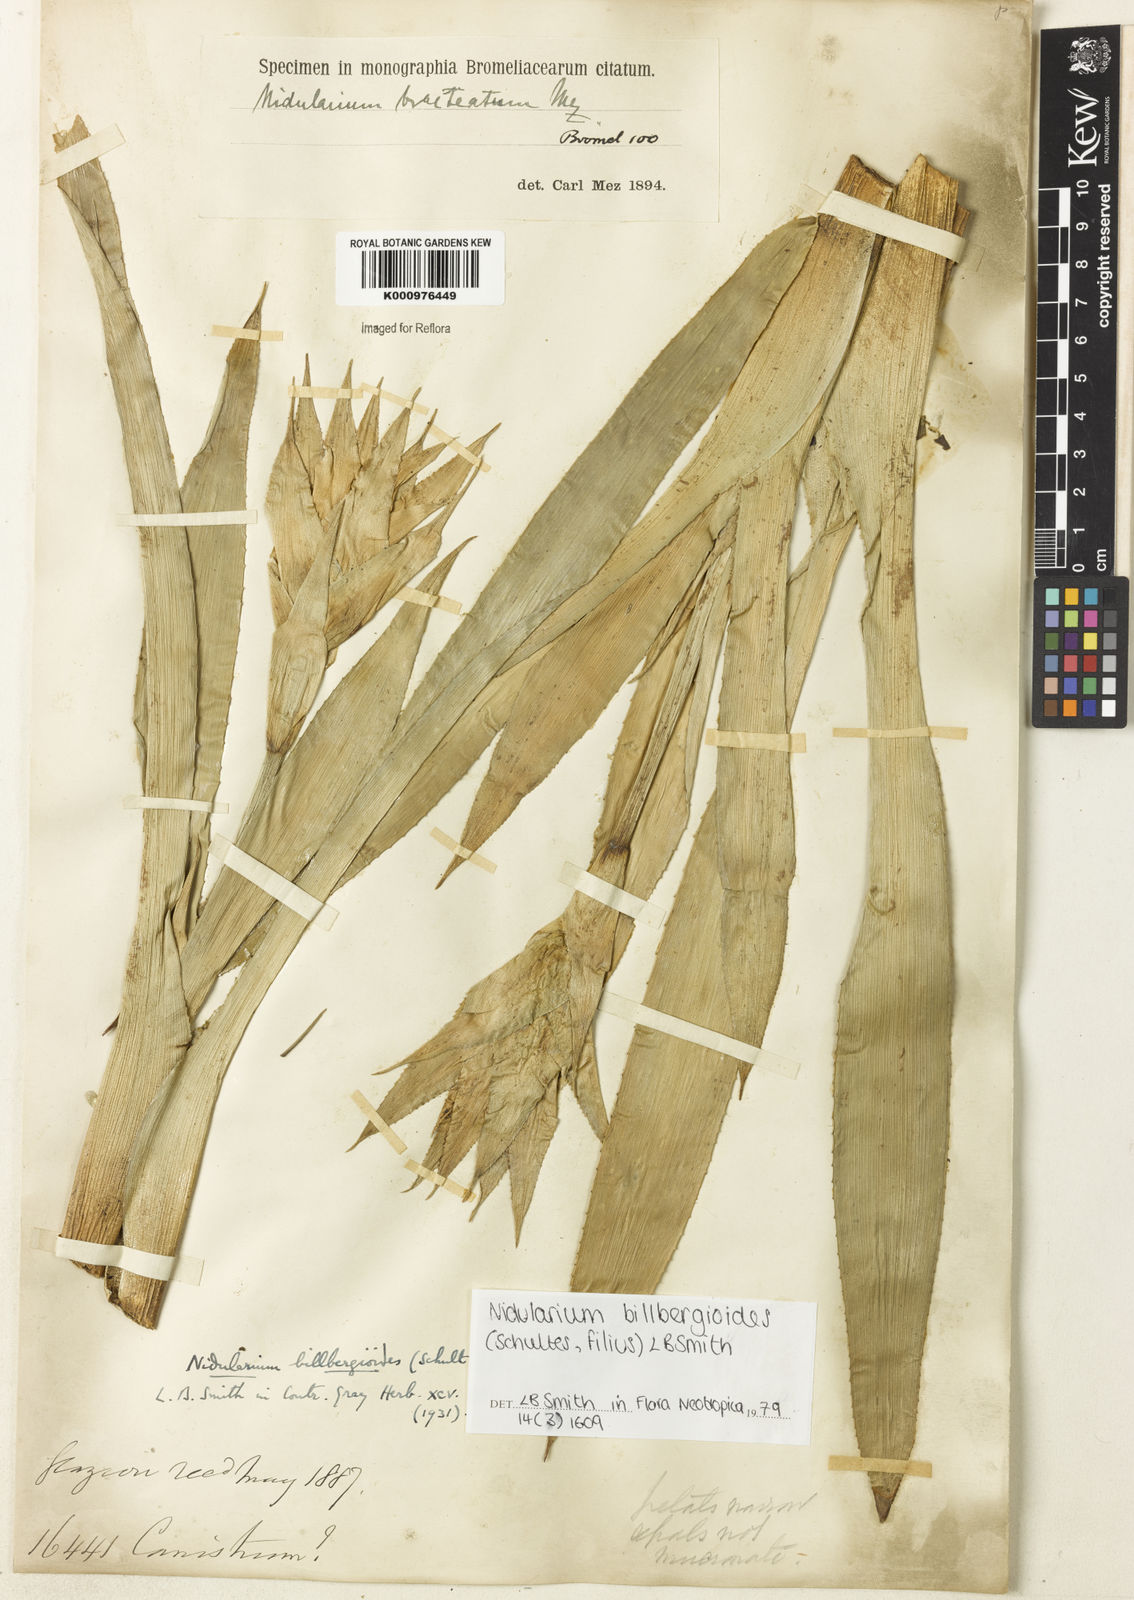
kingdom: Plantae
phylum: Tracheophyta
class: Liliopsida
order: Poales
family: Bromeliaceae
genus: Canistropsis
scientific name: Canistropsis billbergioides
